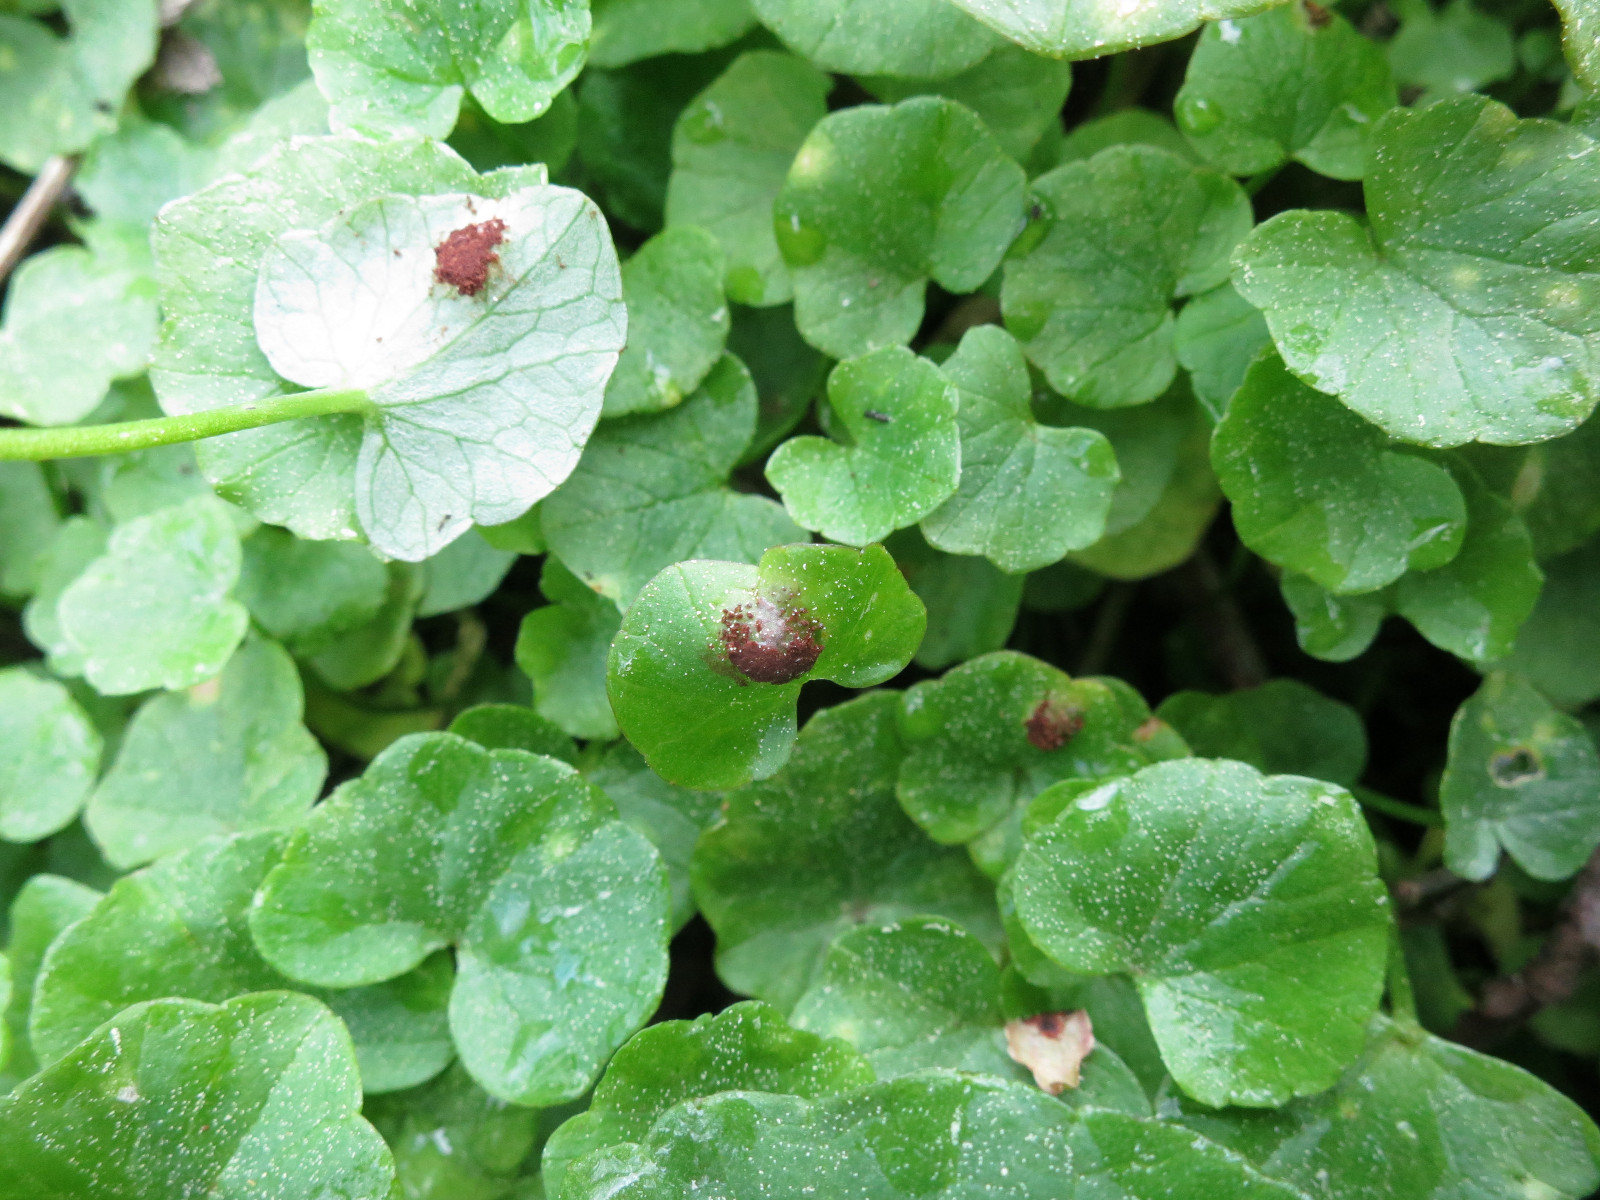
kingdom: Fungi
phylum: Basidiomycota
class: Pucciniomycetes
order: Pucciniales
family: Pucciniaceae
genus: Uromyces
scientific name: Uromyces ficariae
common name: vorterod-encellerust
